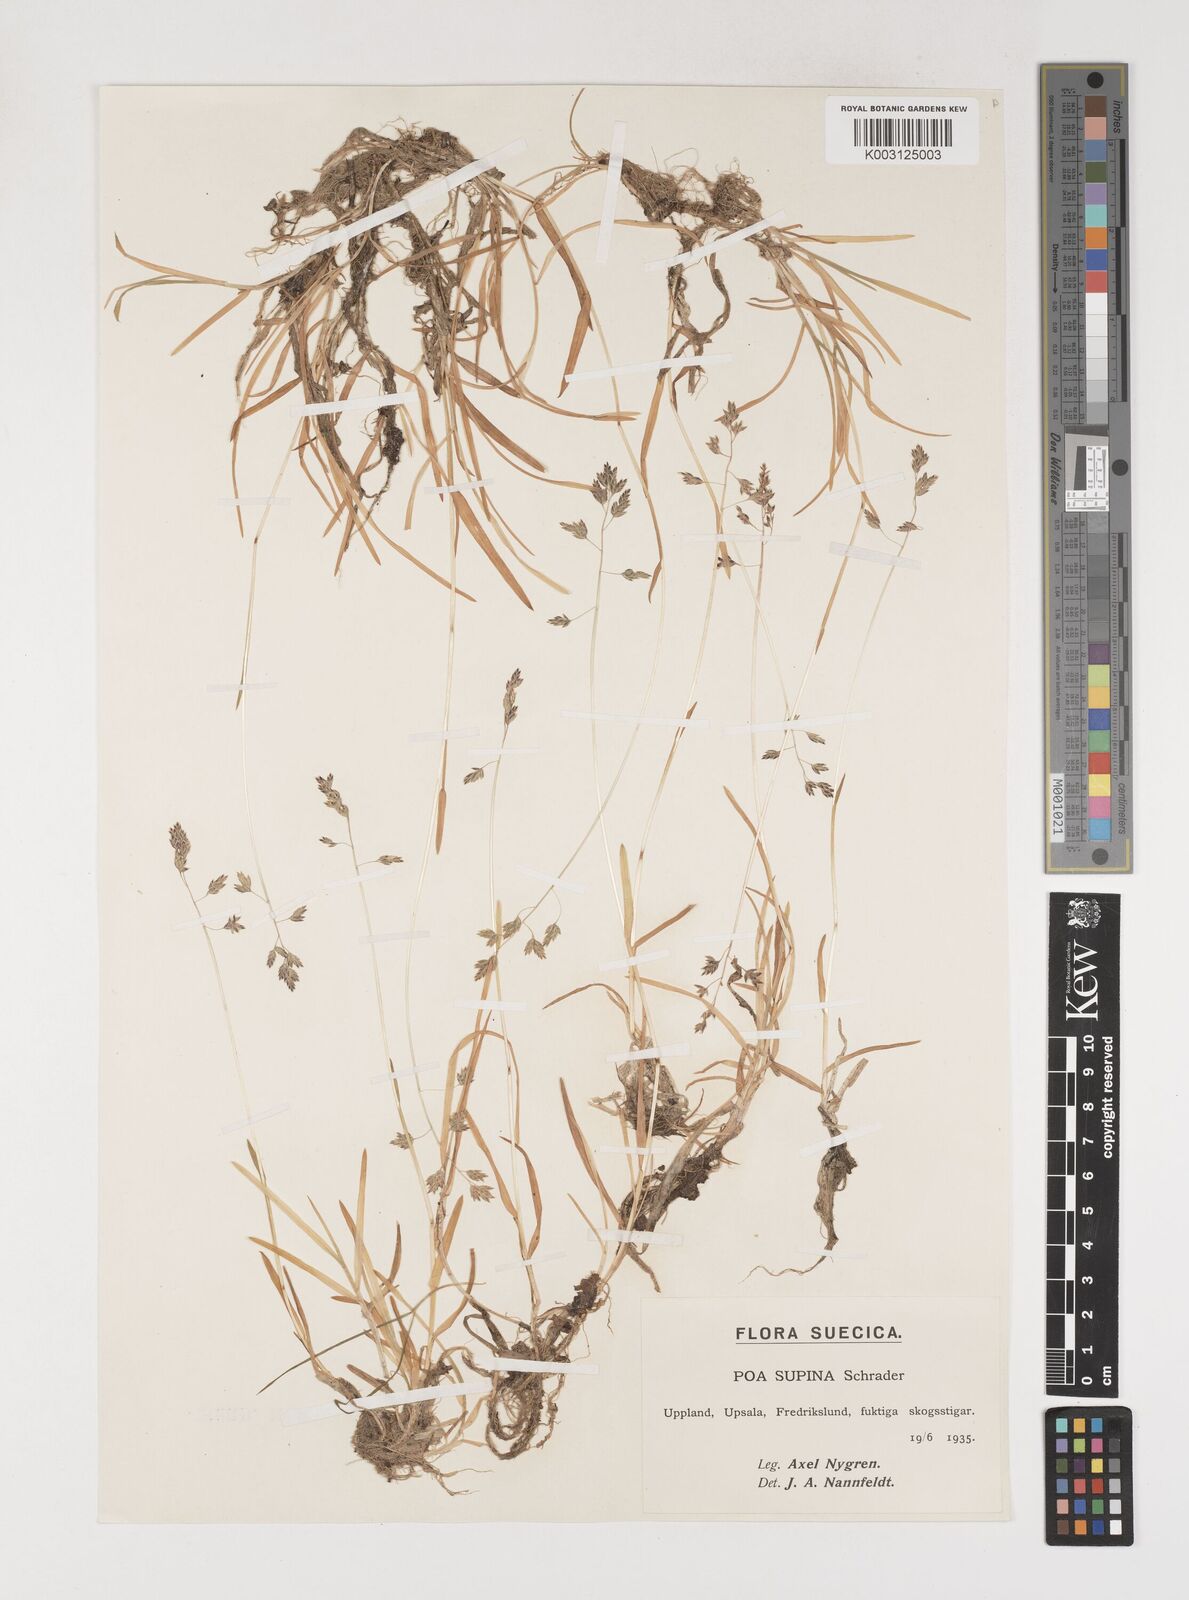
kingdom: Plantae
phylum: Tracheophyta
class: Liliopsida
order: Poales
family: Poaceae
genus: Poa
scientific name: Poa supina
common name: Supina bluegrass
